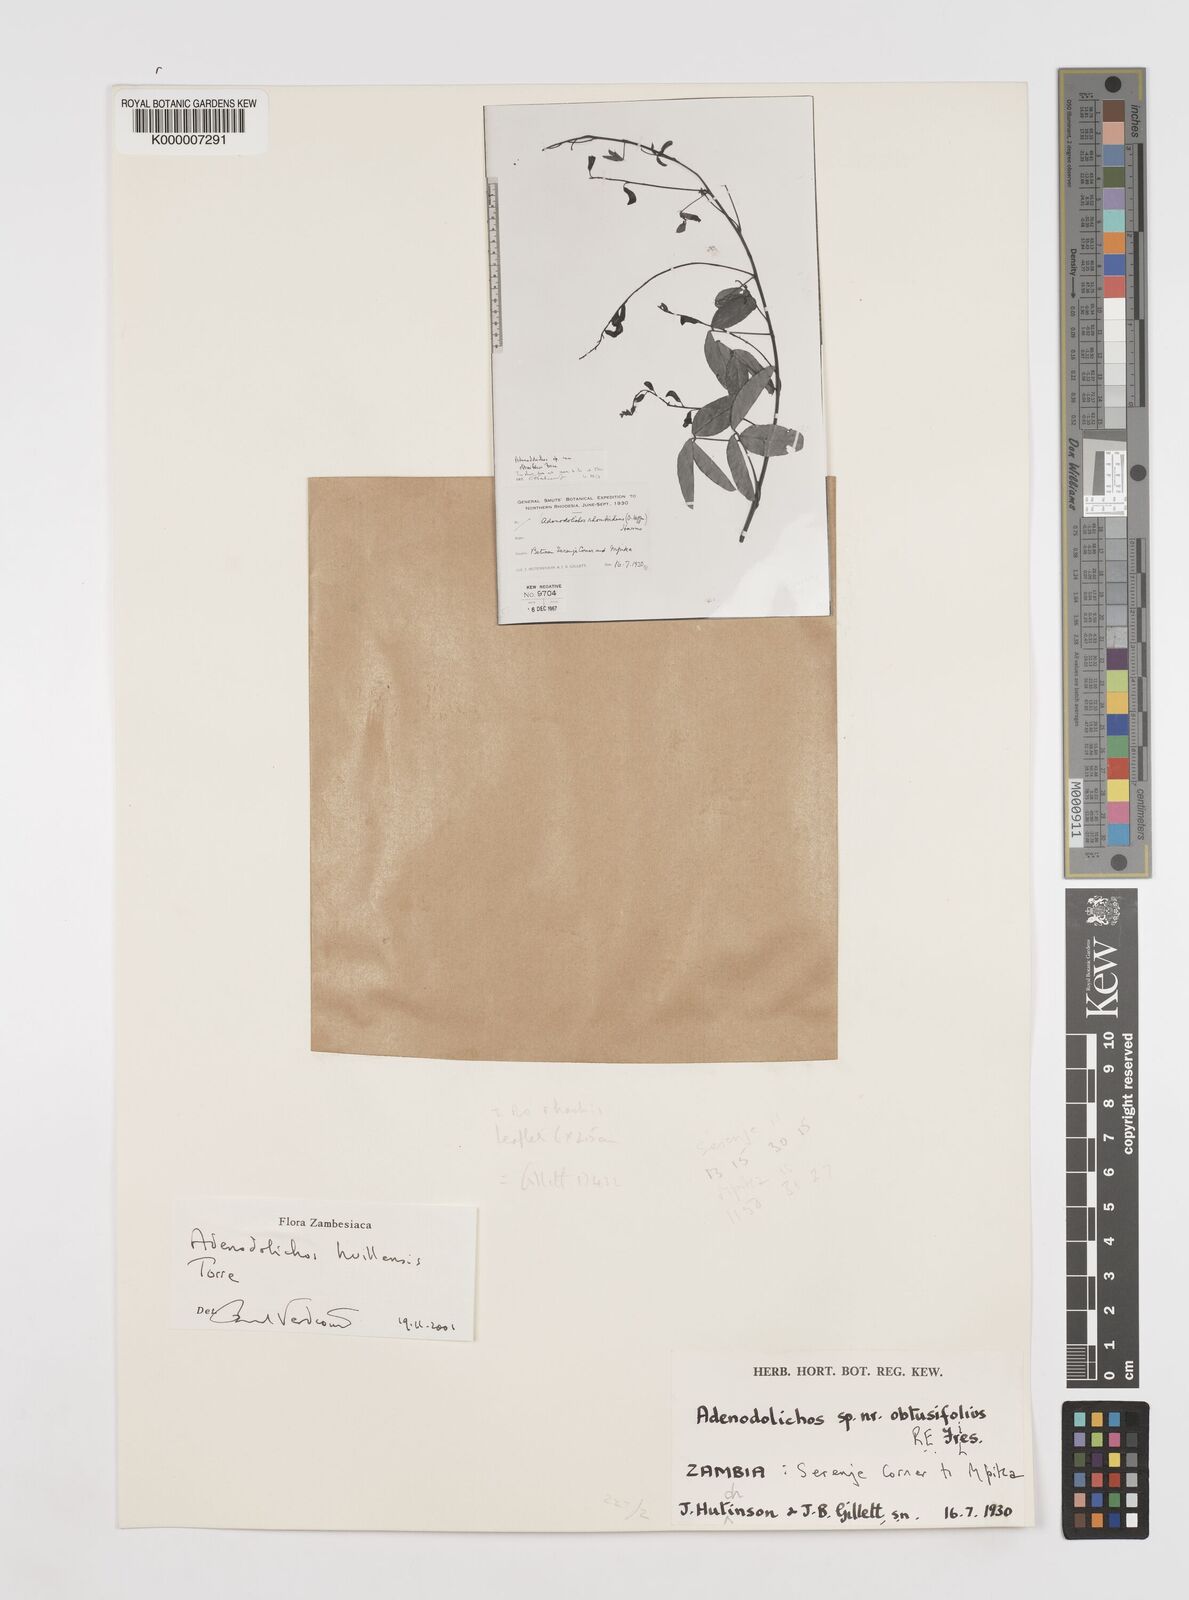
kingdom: Plantae
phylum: Tracheophyta
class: Magnoliopsida
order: Fabales
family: Fabaceae
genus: Adenodolichos
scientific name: Adenodolichos huillensis
